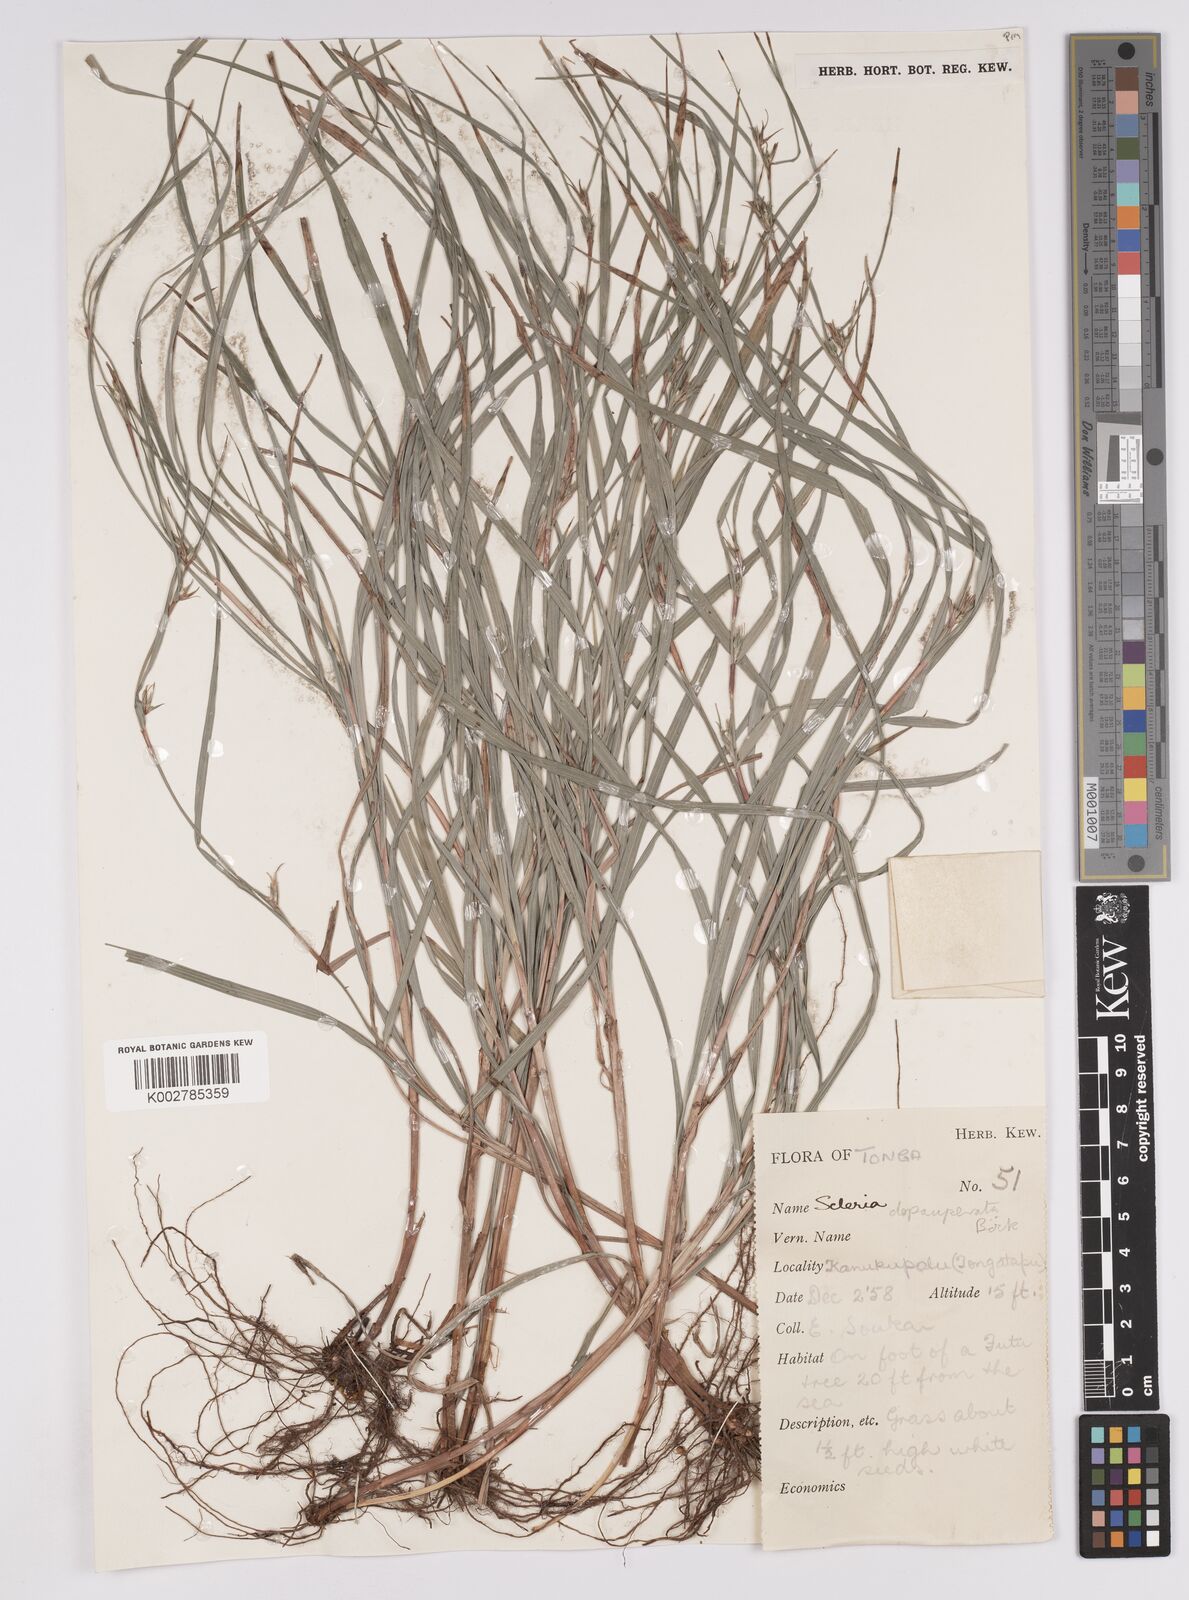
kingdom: Plantae
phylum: Tracheophyta
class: Liliopsida
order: Poales
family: Cyperaceae
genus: Scleria
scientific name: Scleria depauperata
